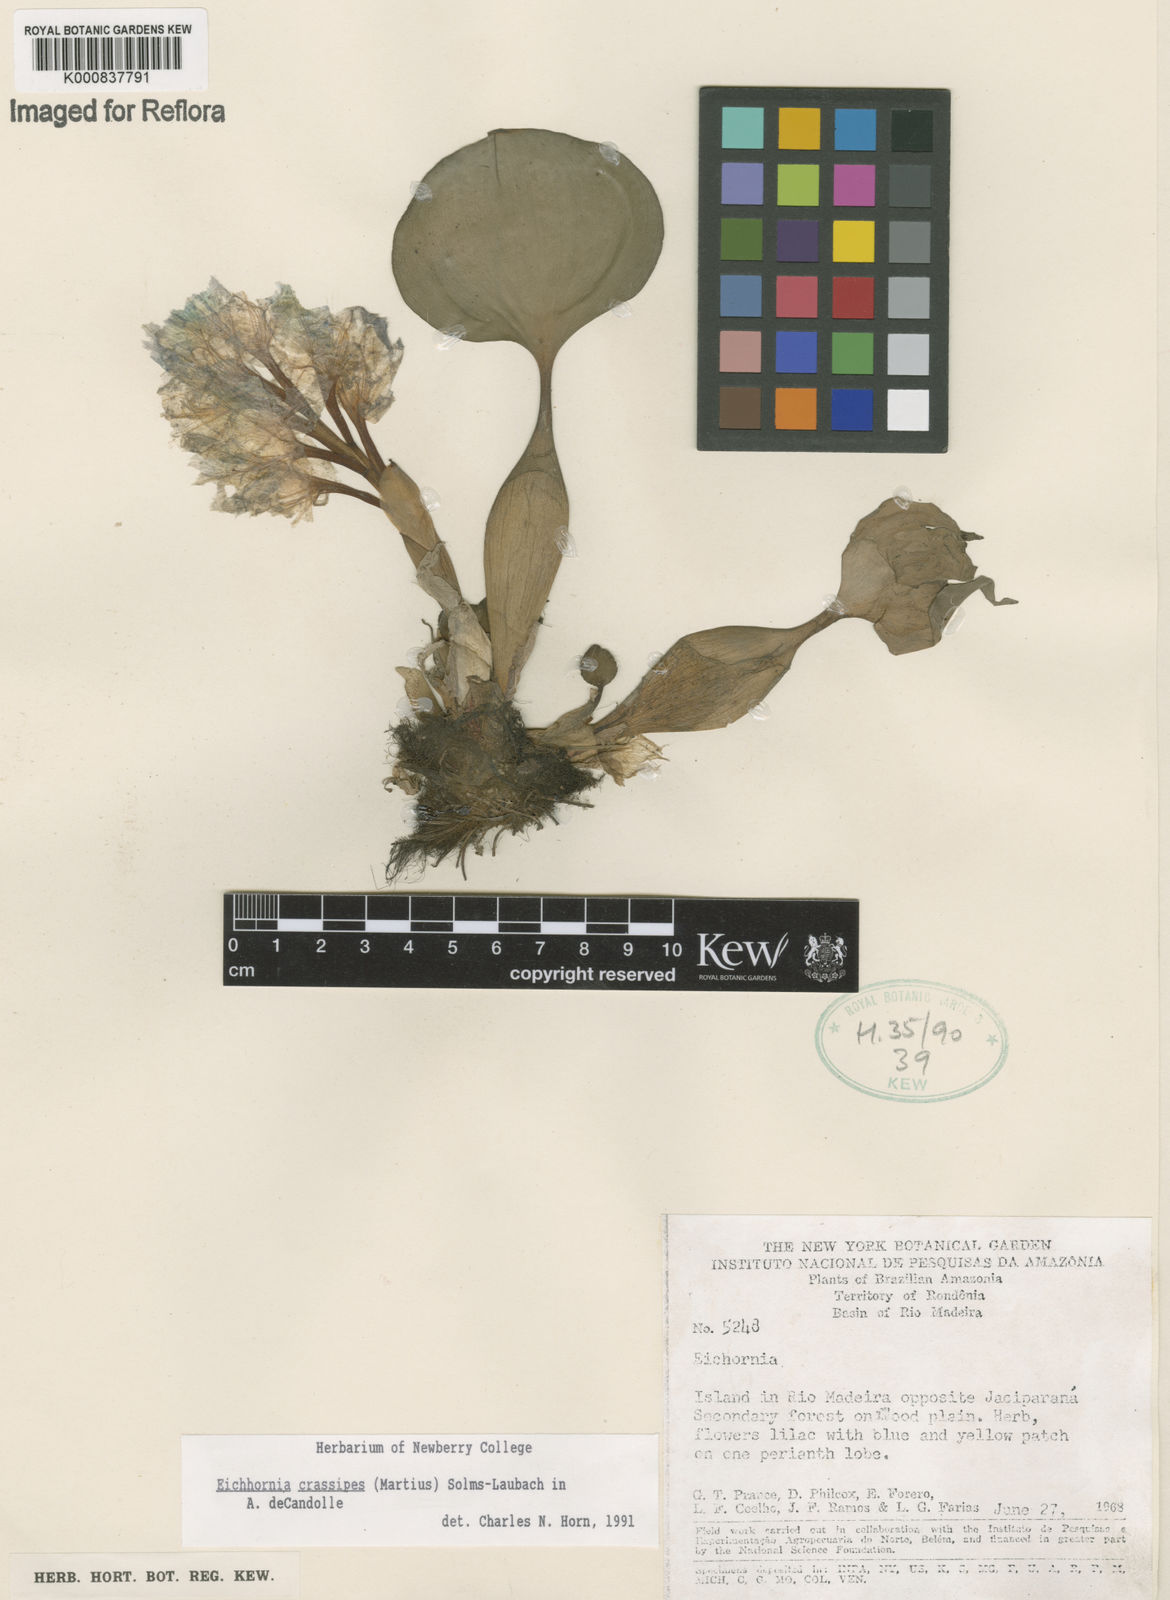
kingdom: Plantae
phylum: Tracheophyta
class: Liliopsida
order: Commelinales
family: Pontederiaceae
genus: Pontederia
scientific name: Pontederia crassipes
